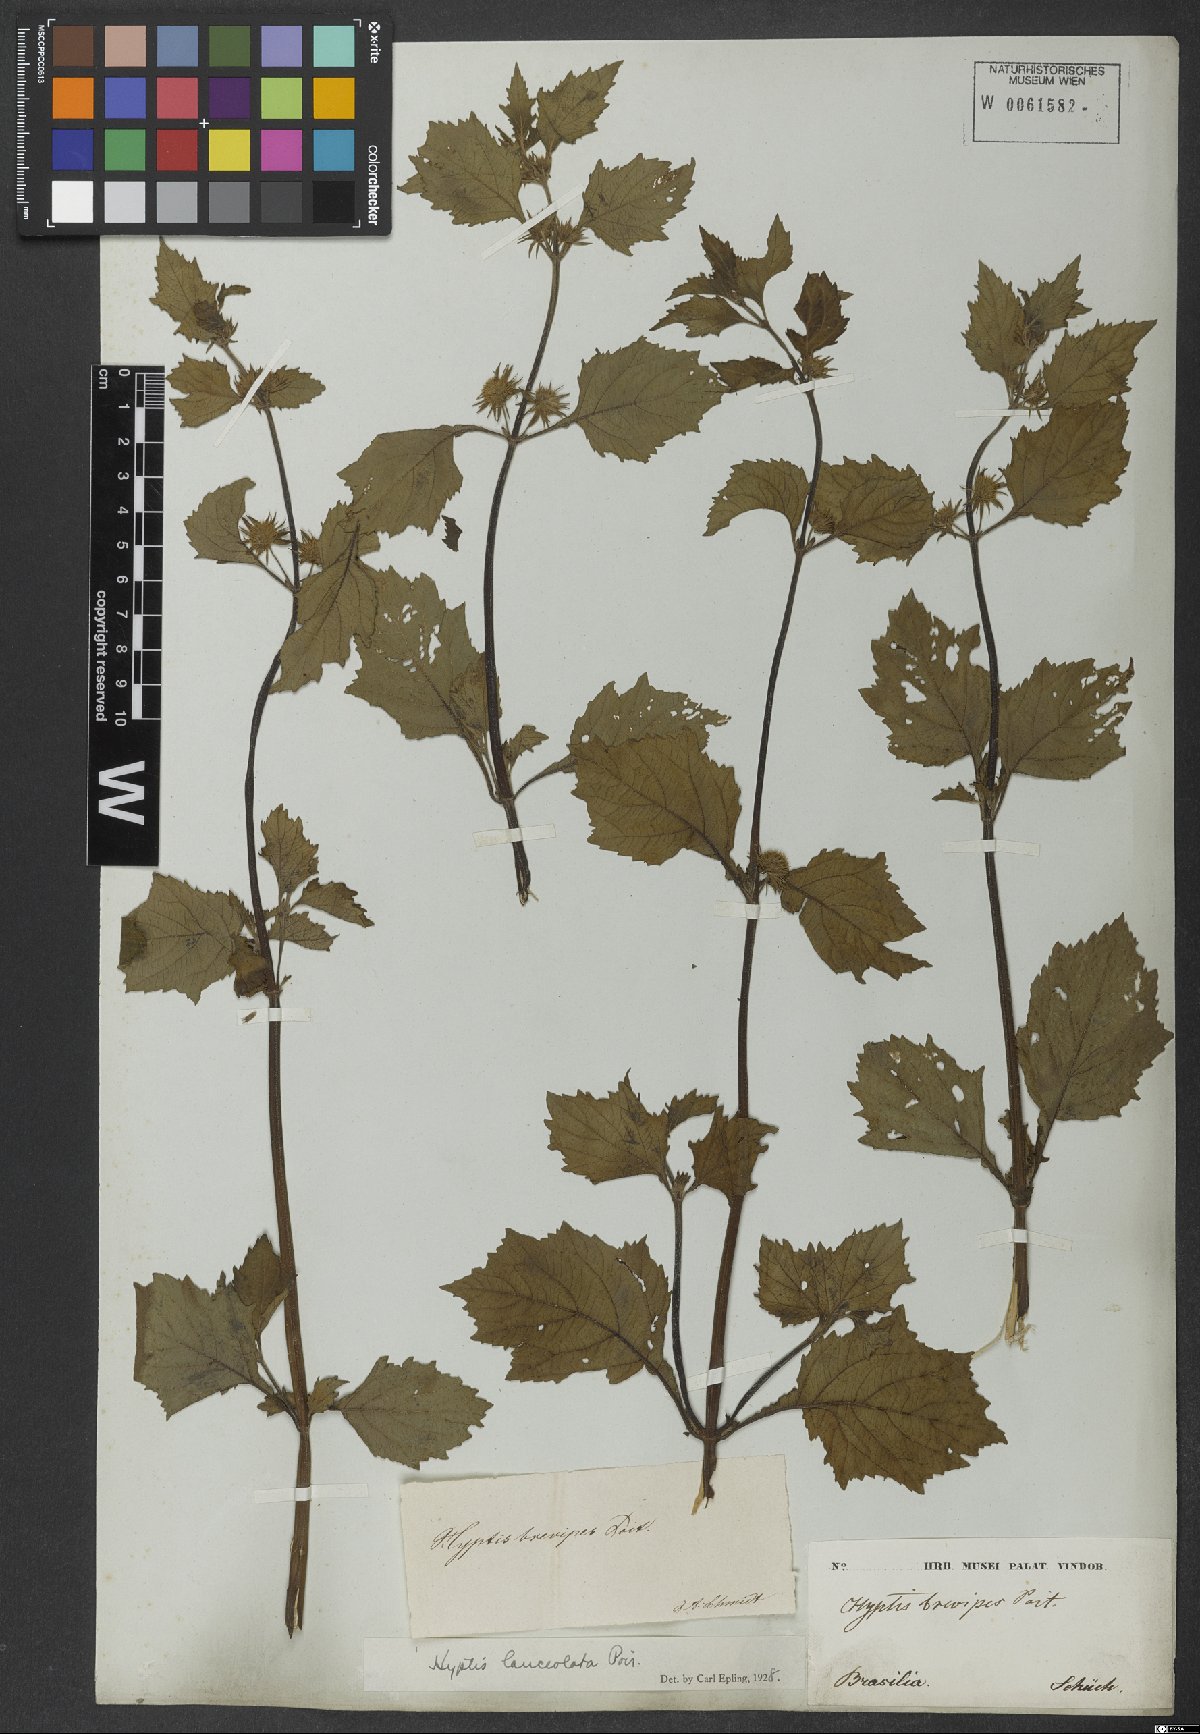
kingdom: Plantae
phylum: Tracheophyta
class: Magnoliopsida
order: Lamiales
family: Lamiaceae
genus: Hyptis
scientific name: Hyptis lanceolata
